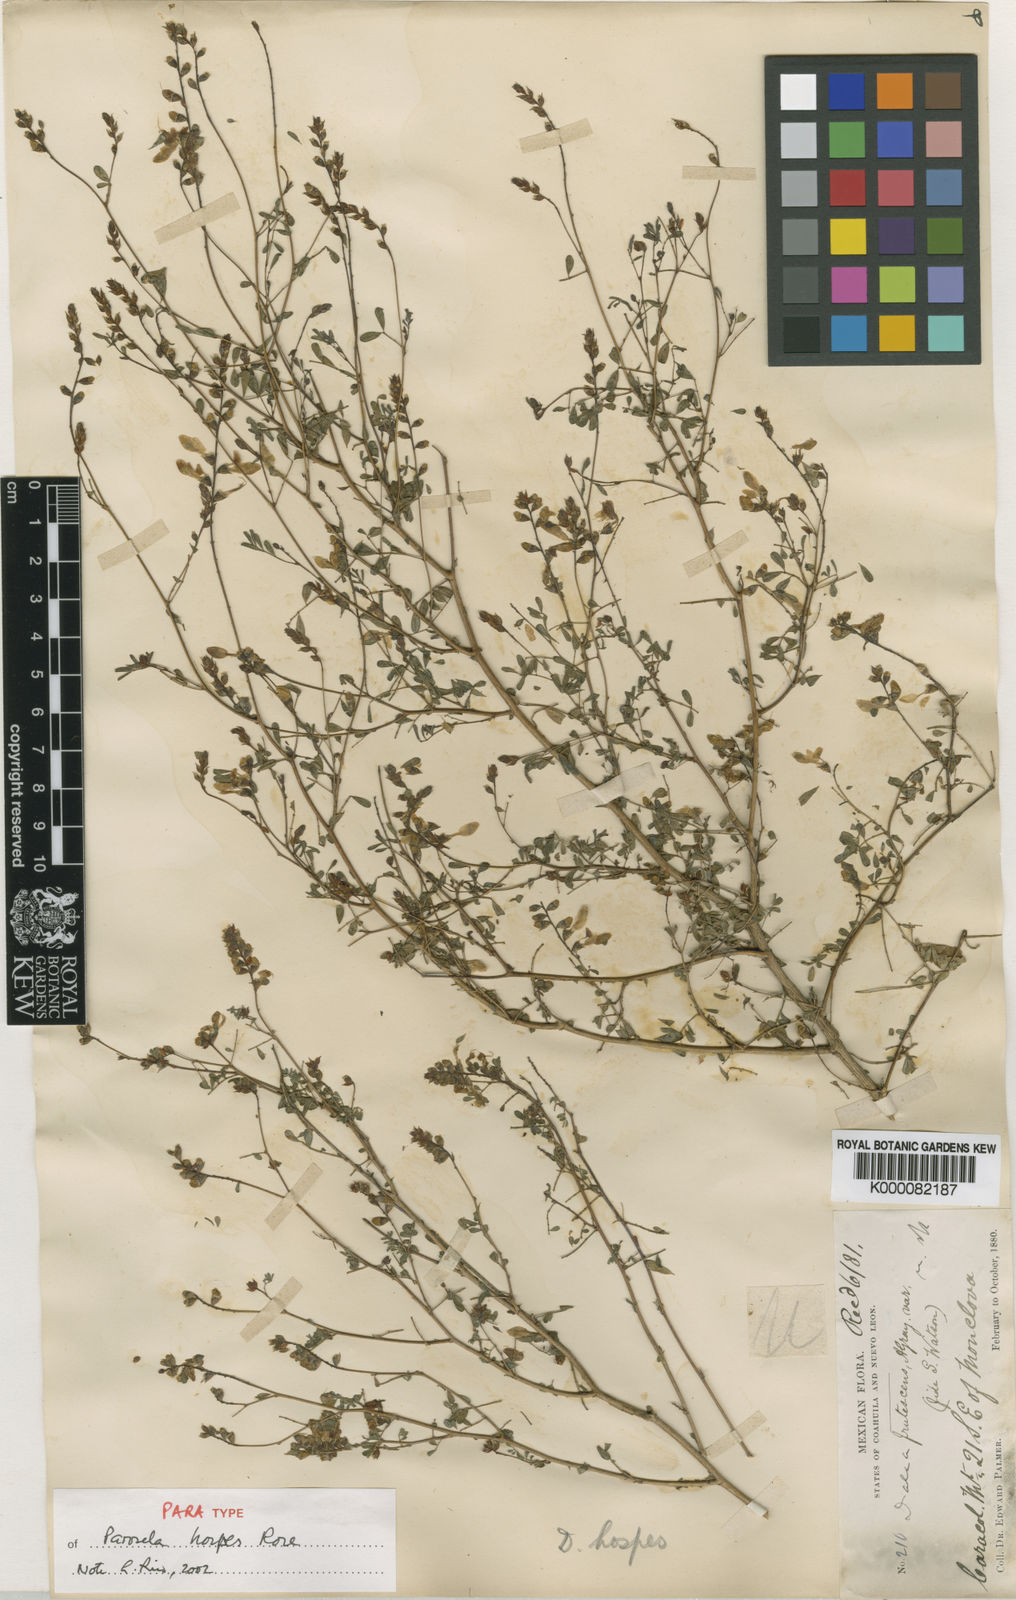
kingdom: Plantae
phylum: Tracheophyta
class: Magnoliopsida
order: Fabales
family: Fabaceae
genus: Dalea
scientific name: Dalea hospes
